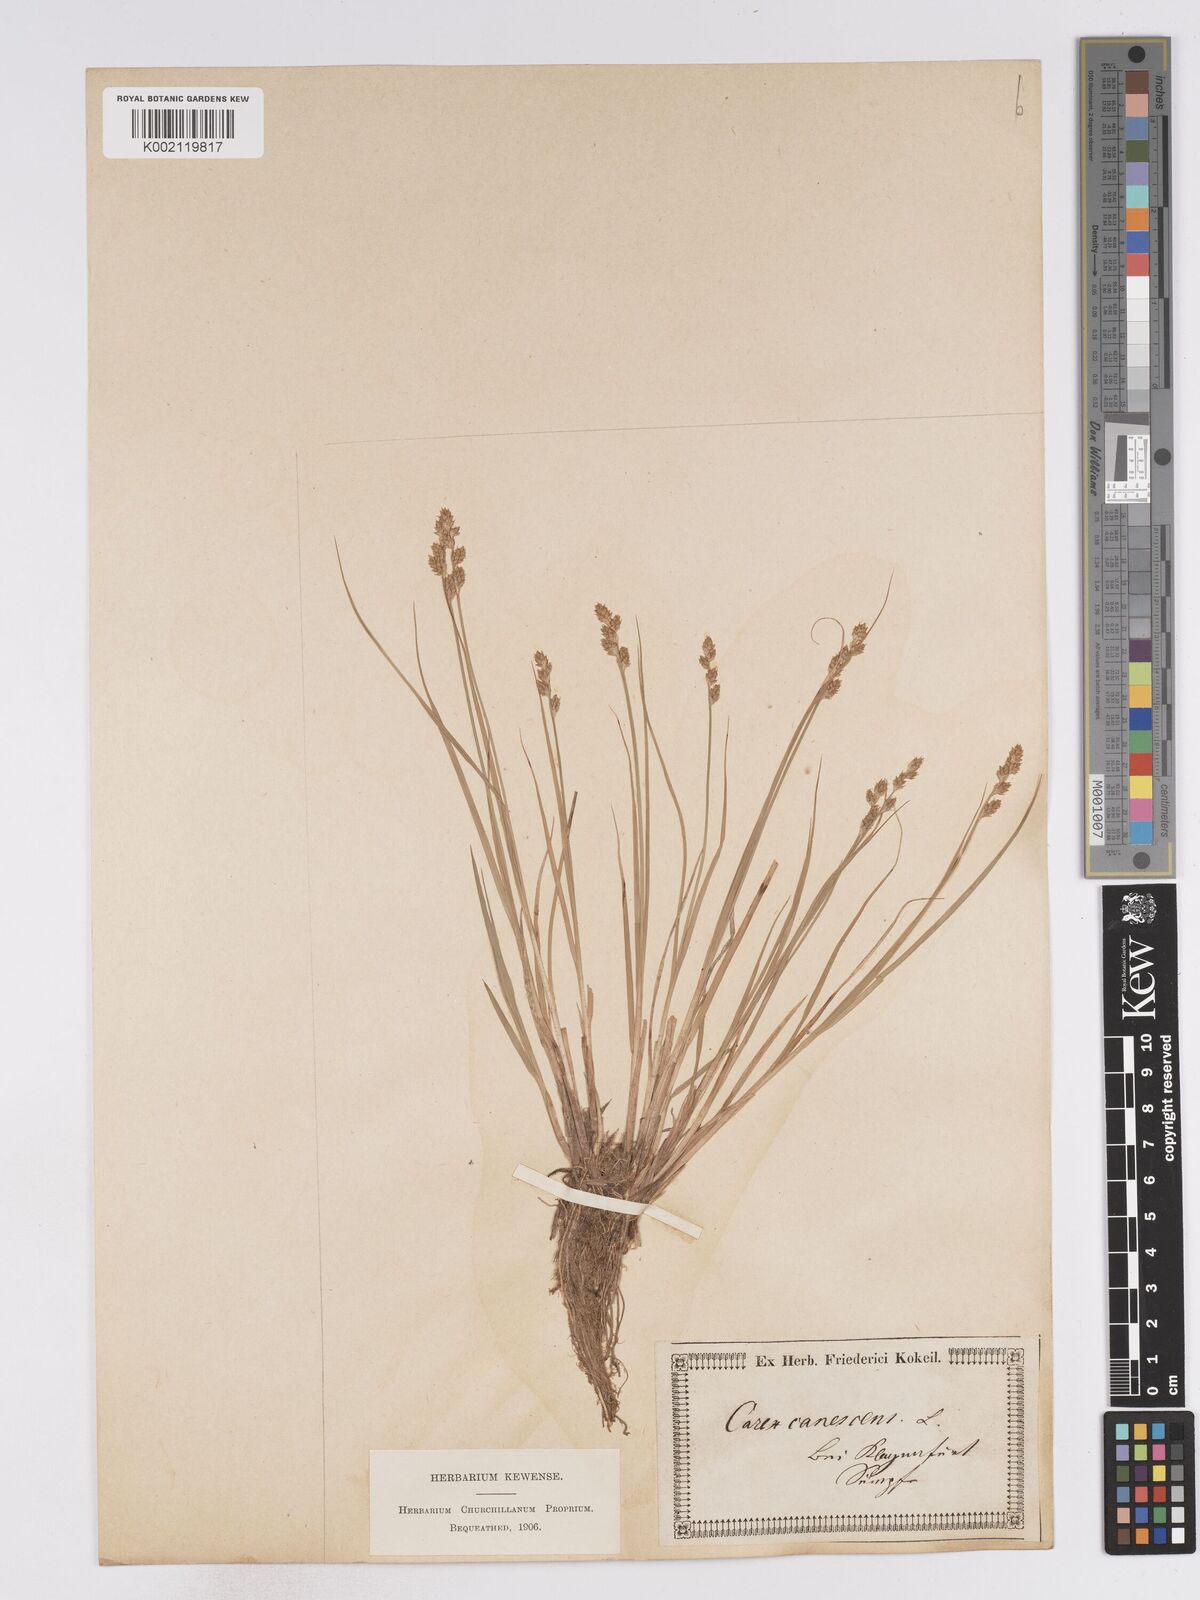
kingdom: Plantae
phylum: Tracheophyta
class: Liliopsida
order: Poales
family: Cyperaceae
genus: Carex
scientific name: Carex curta
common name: White sedge
